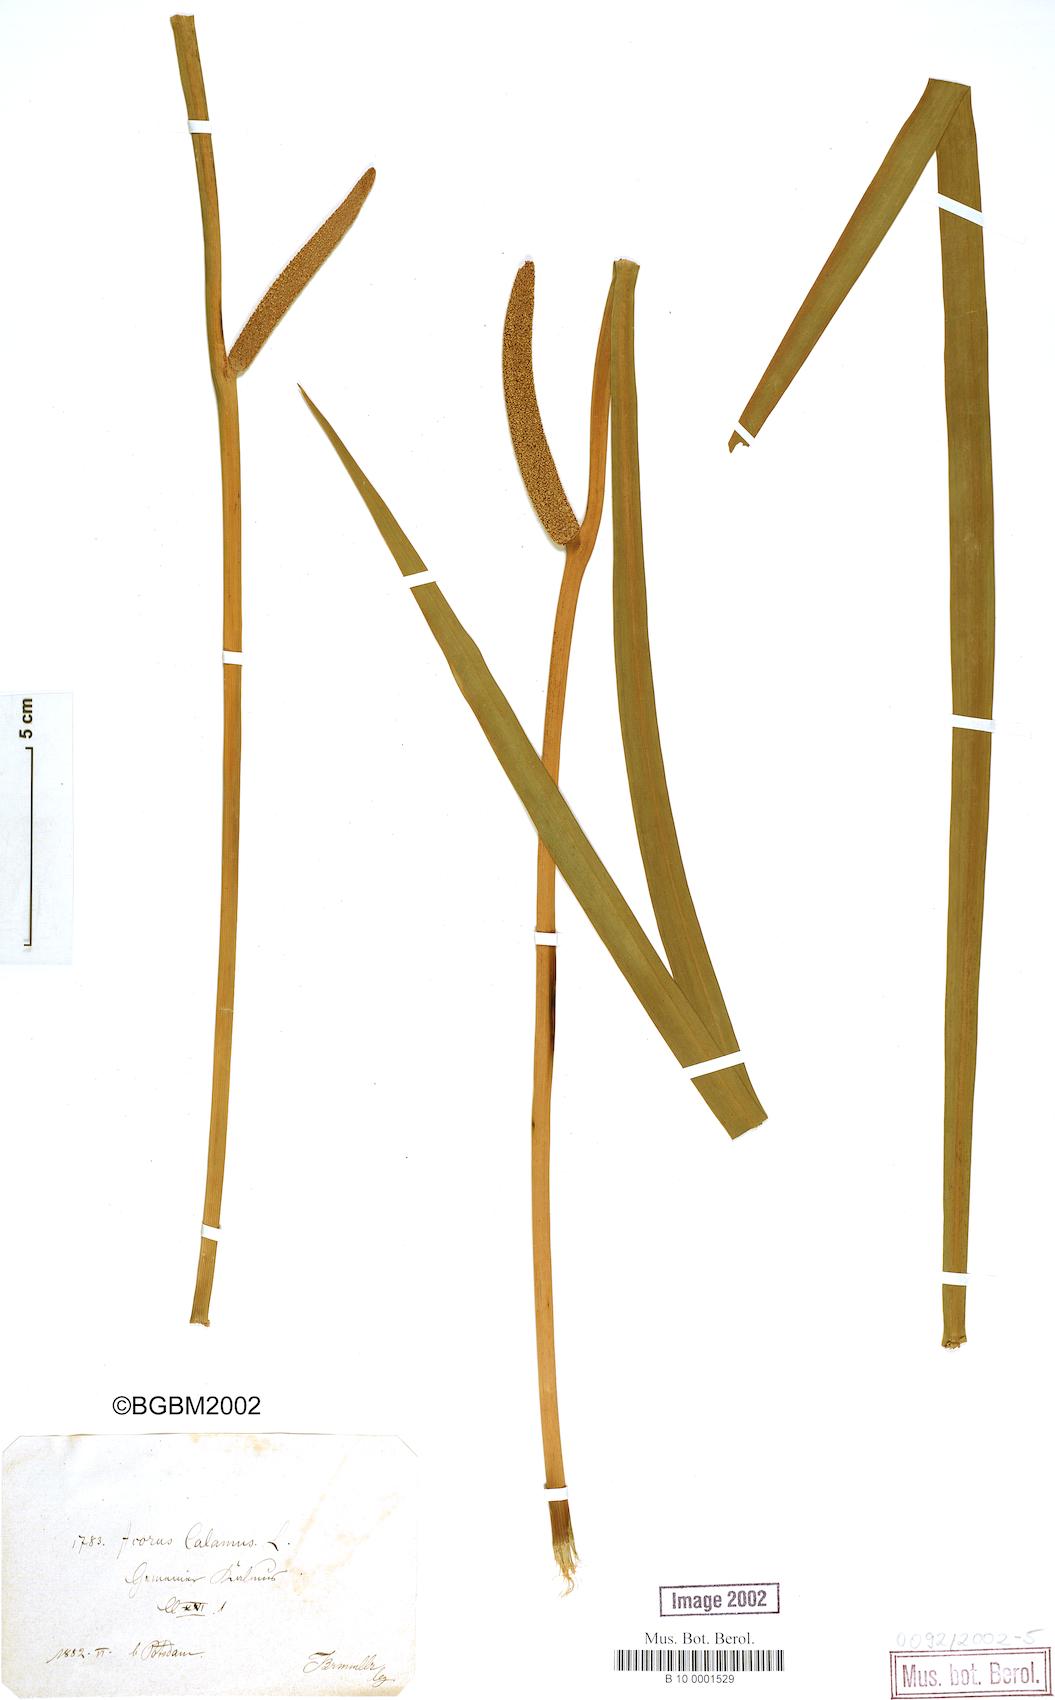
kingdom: Plantae
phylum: Tracheophyta
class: Liliopsida
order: Acorales
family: Acoraceae
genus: Acorus
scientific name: Acorus calamus
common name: Sweet-flag
